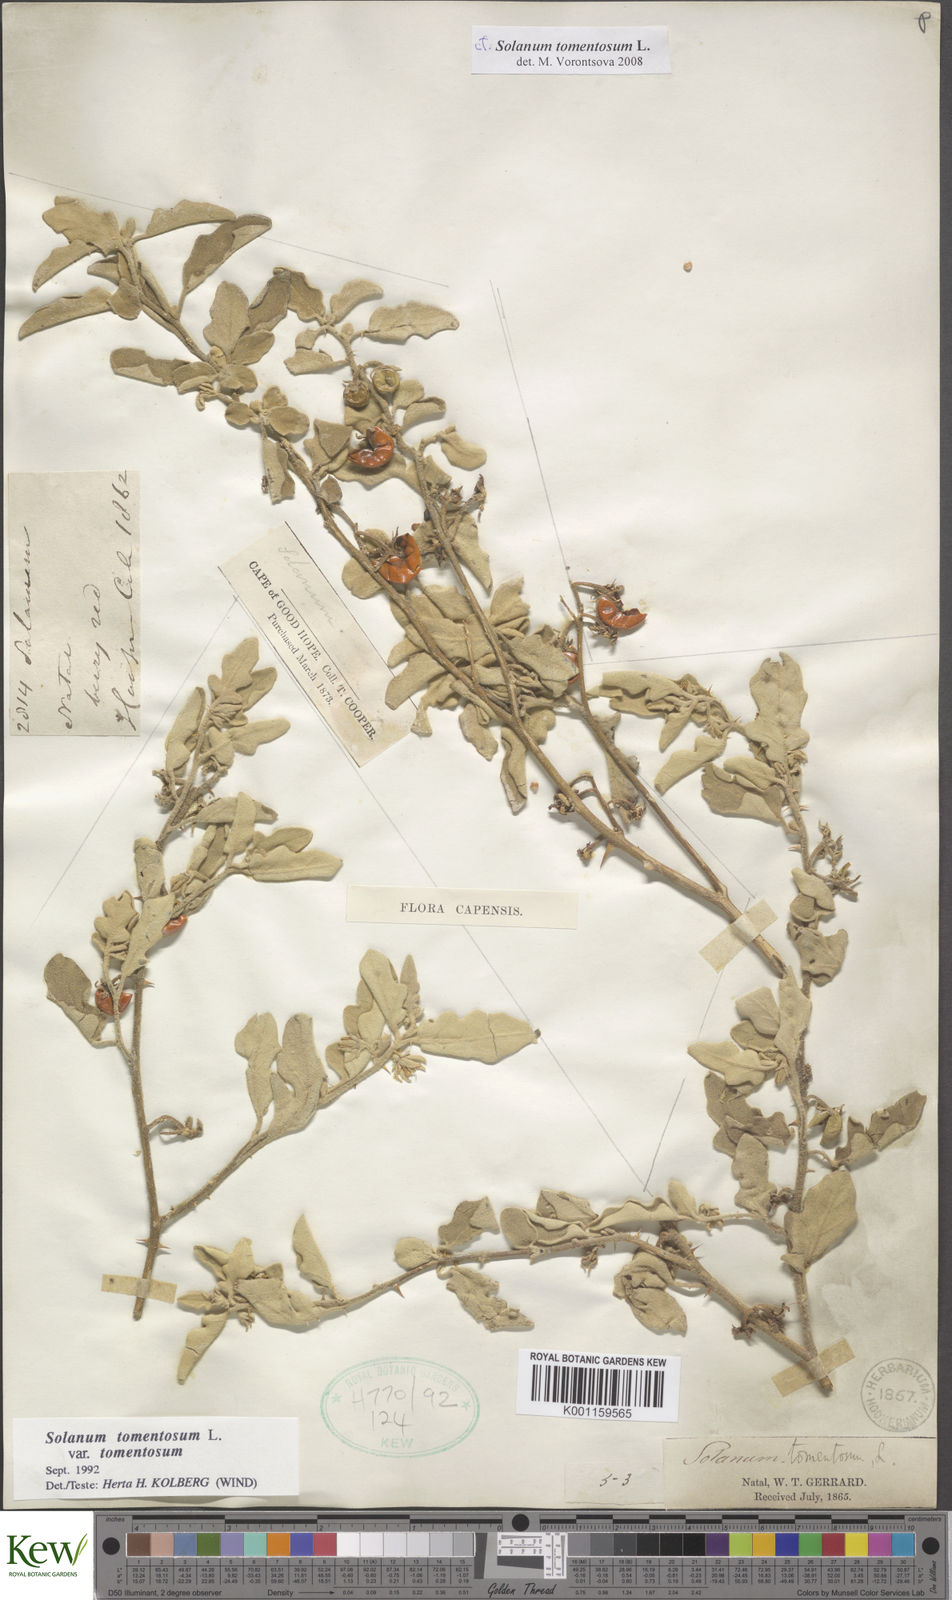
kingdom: Plantae
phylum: Tracheophyta
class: Magnoliopsida
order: Solanales
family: Solanaceae
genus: Solanum
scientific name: Solanum tomentosum
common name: Wild aubergine
